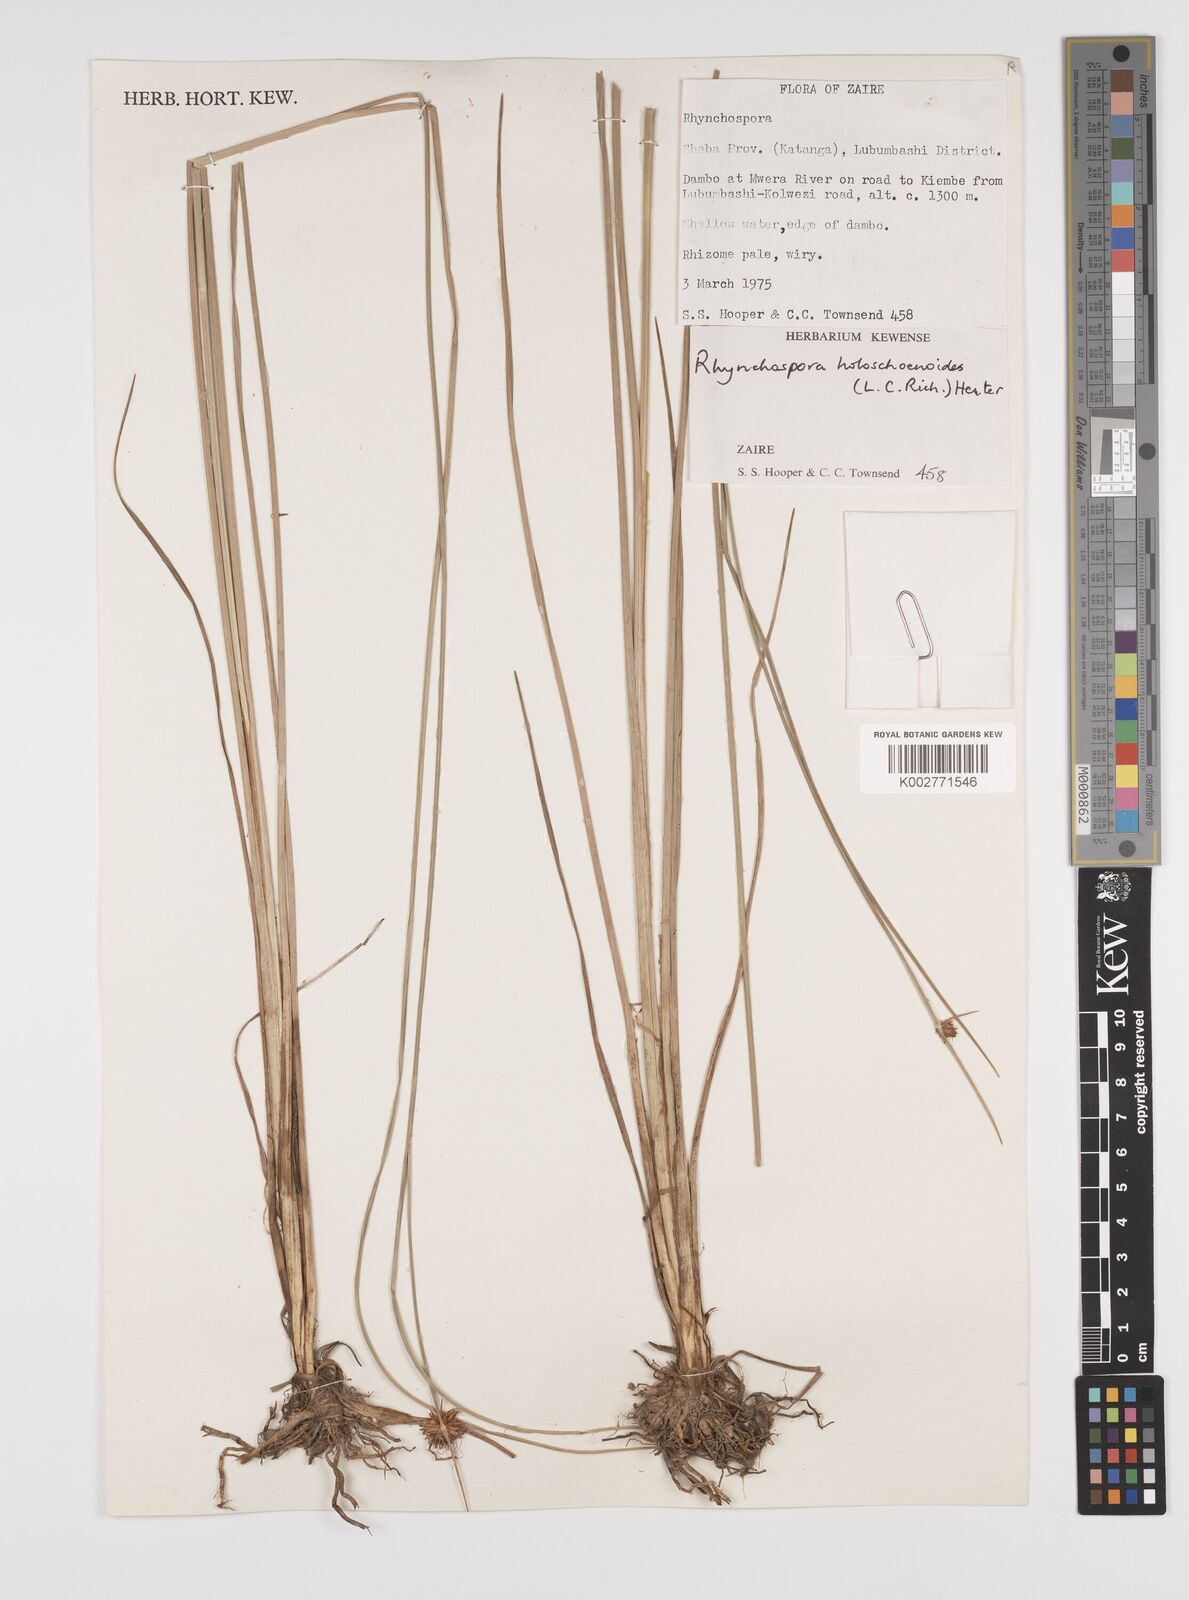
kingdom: Plantae
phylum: Tracheophyta
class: Liliopsida
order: Poales
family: Cyperaceae
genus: Rhynchospora
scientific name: Rhynchospora holoschoenoides
